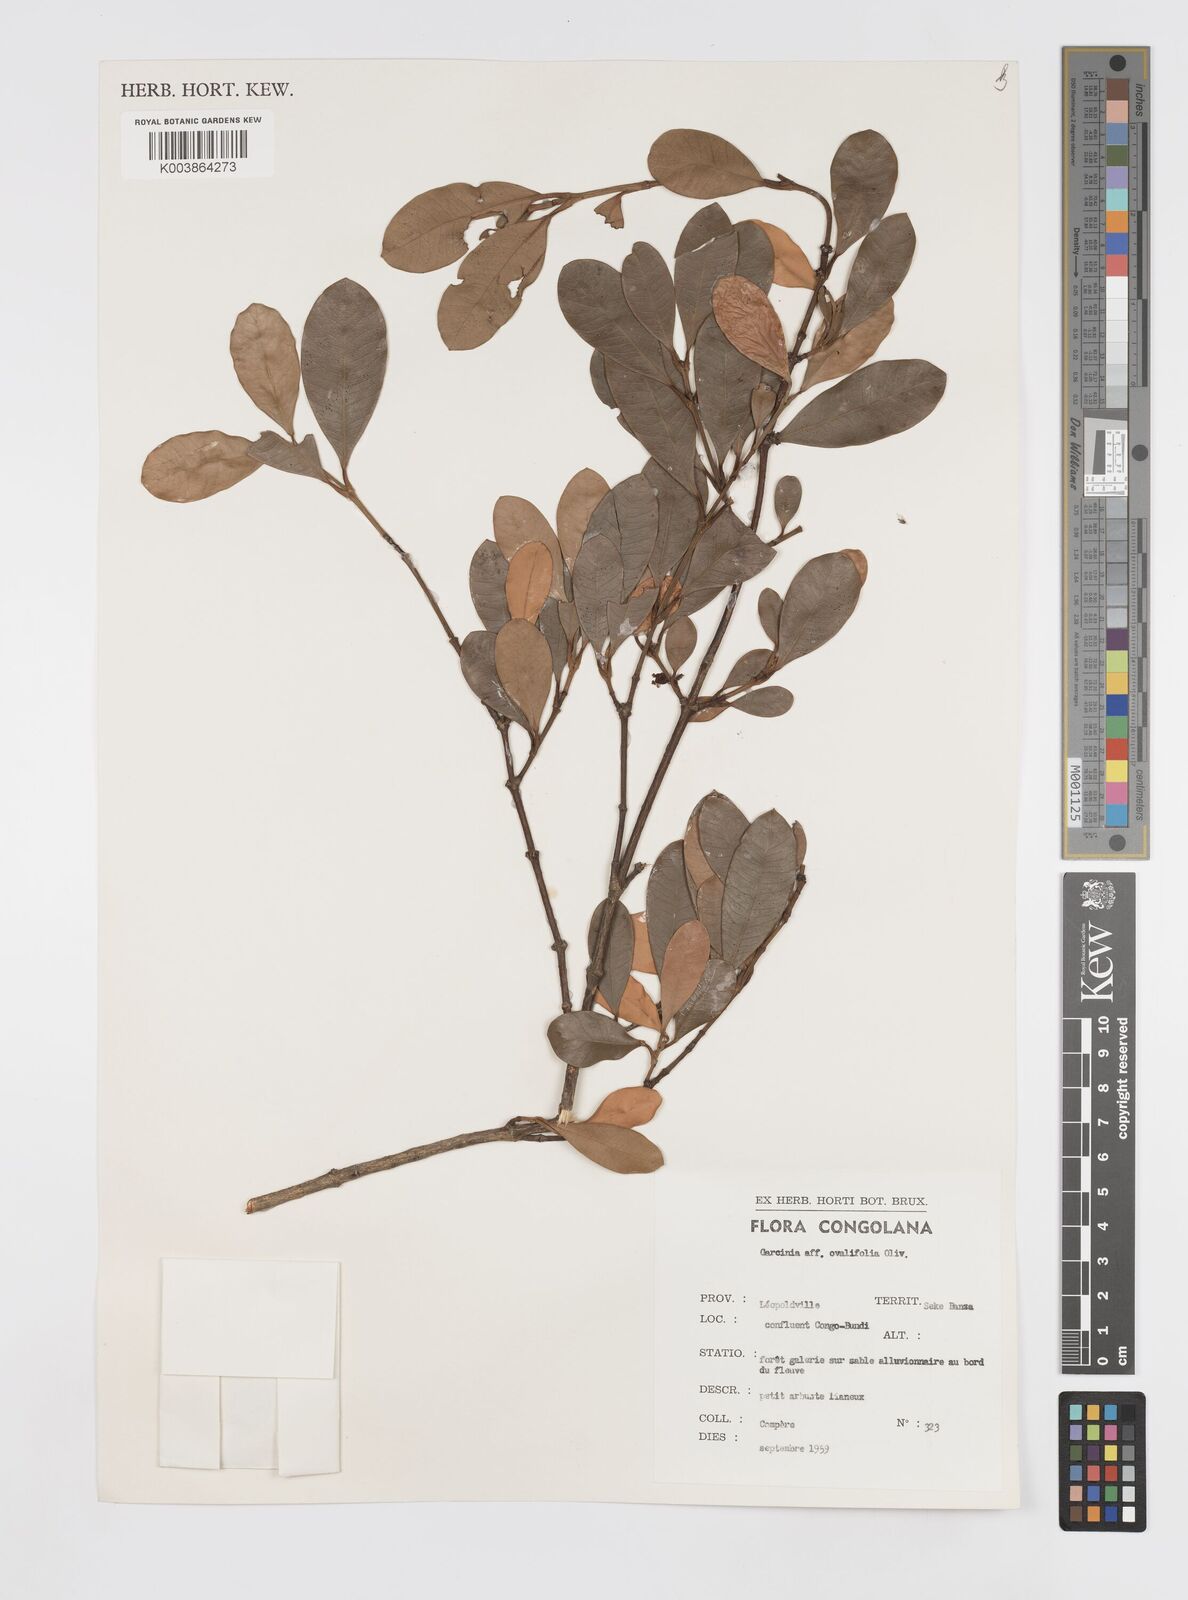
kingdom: Plantae
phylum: Tracheophyta
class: Magnoliopsida
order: Malpighiales
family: Clusiaceae
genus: Garcinia
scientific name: Garcinia ovalifolia
